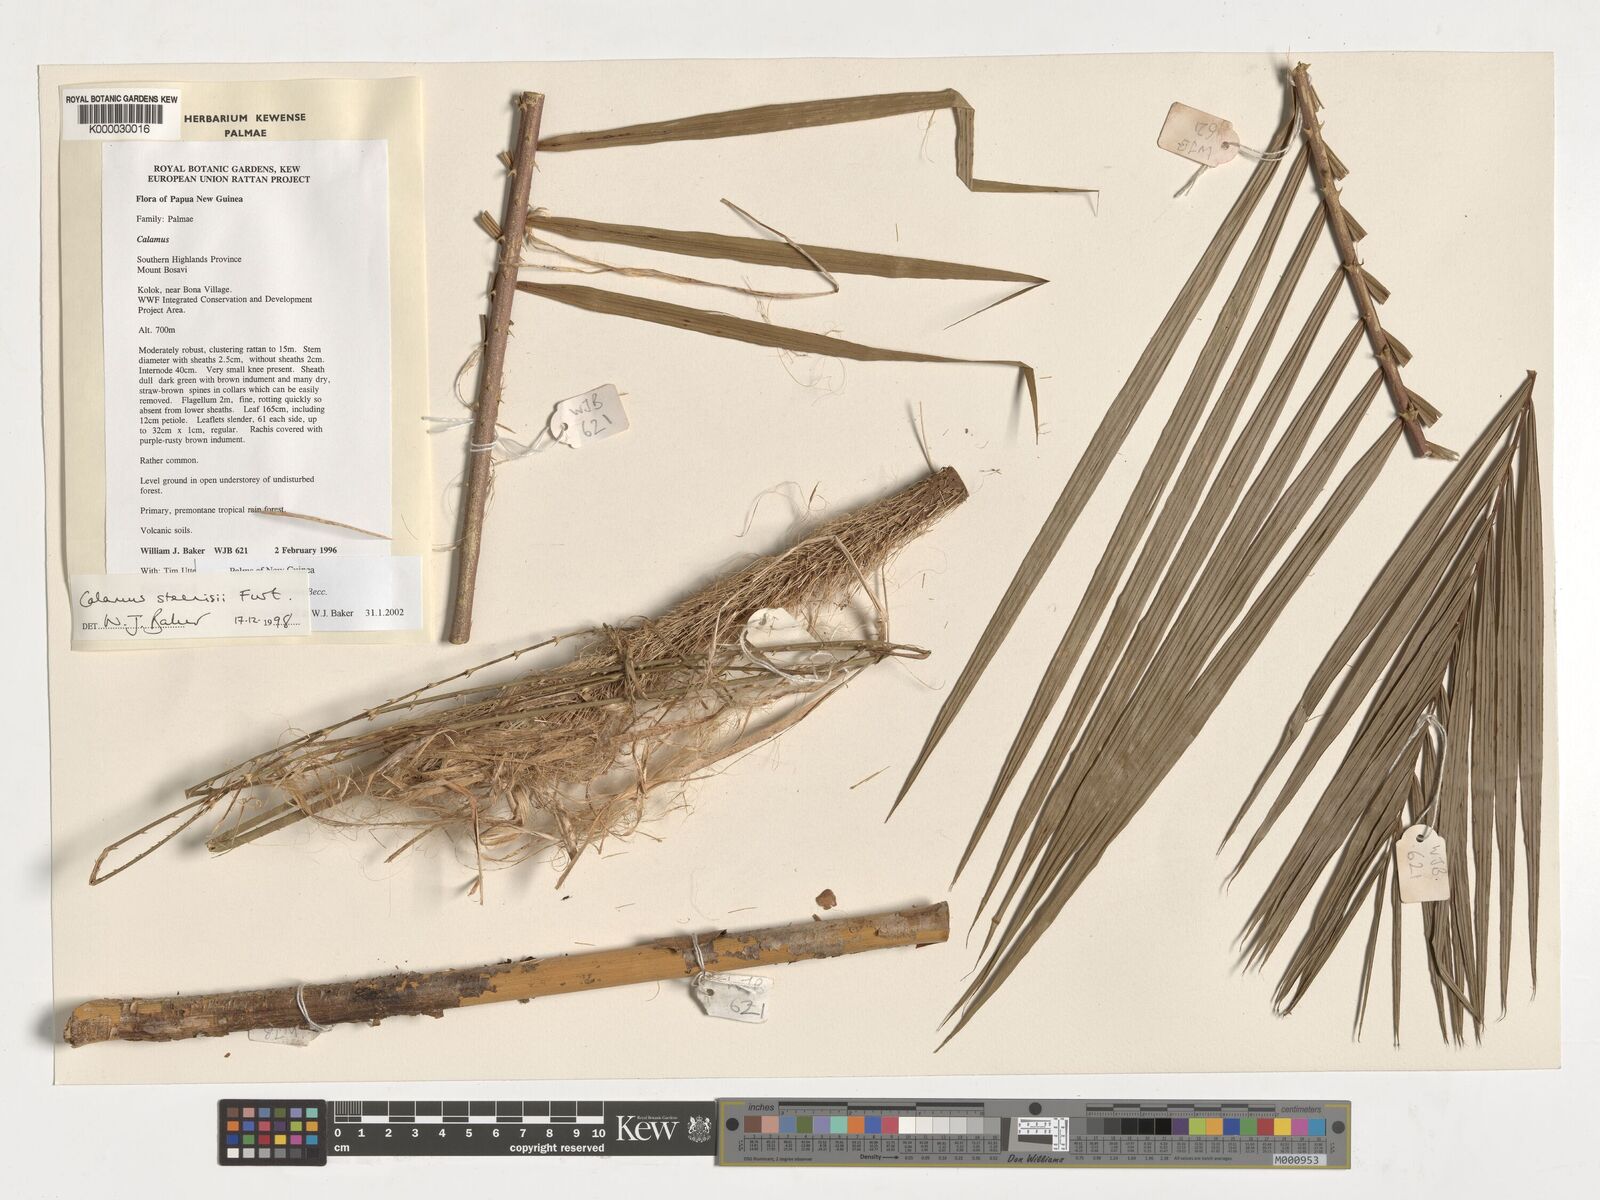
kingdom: Plantae
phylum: Tracheophyta
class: Liliopsida
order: Arecales
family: Arecaceae
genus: Calamus
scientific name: Calamus zebrinus
